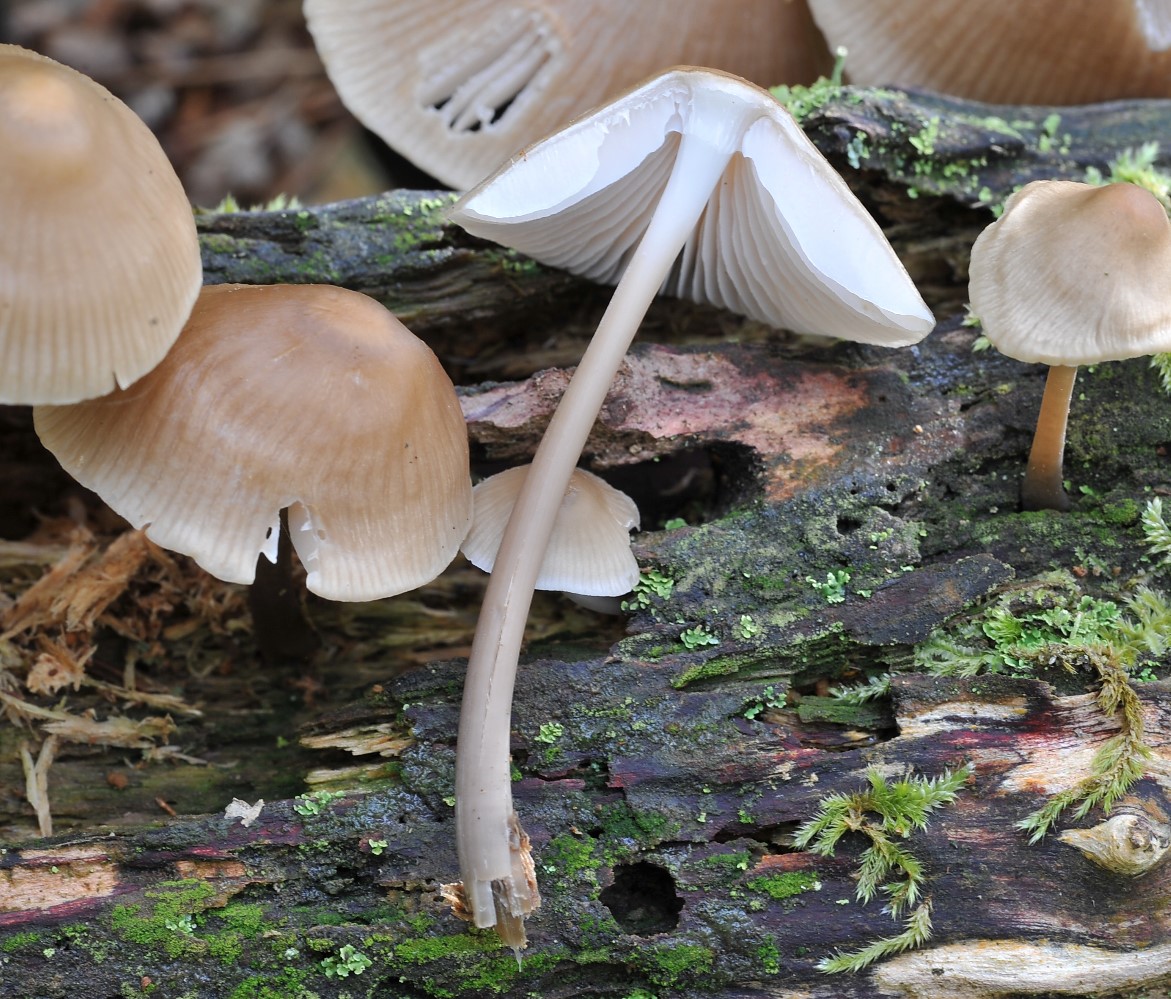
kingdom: Fungi
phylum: Basidiomycota
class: Agaricomycetes
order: Agaricales
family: Mycenaceae
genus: Mycena
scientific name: Mycena galericulata
